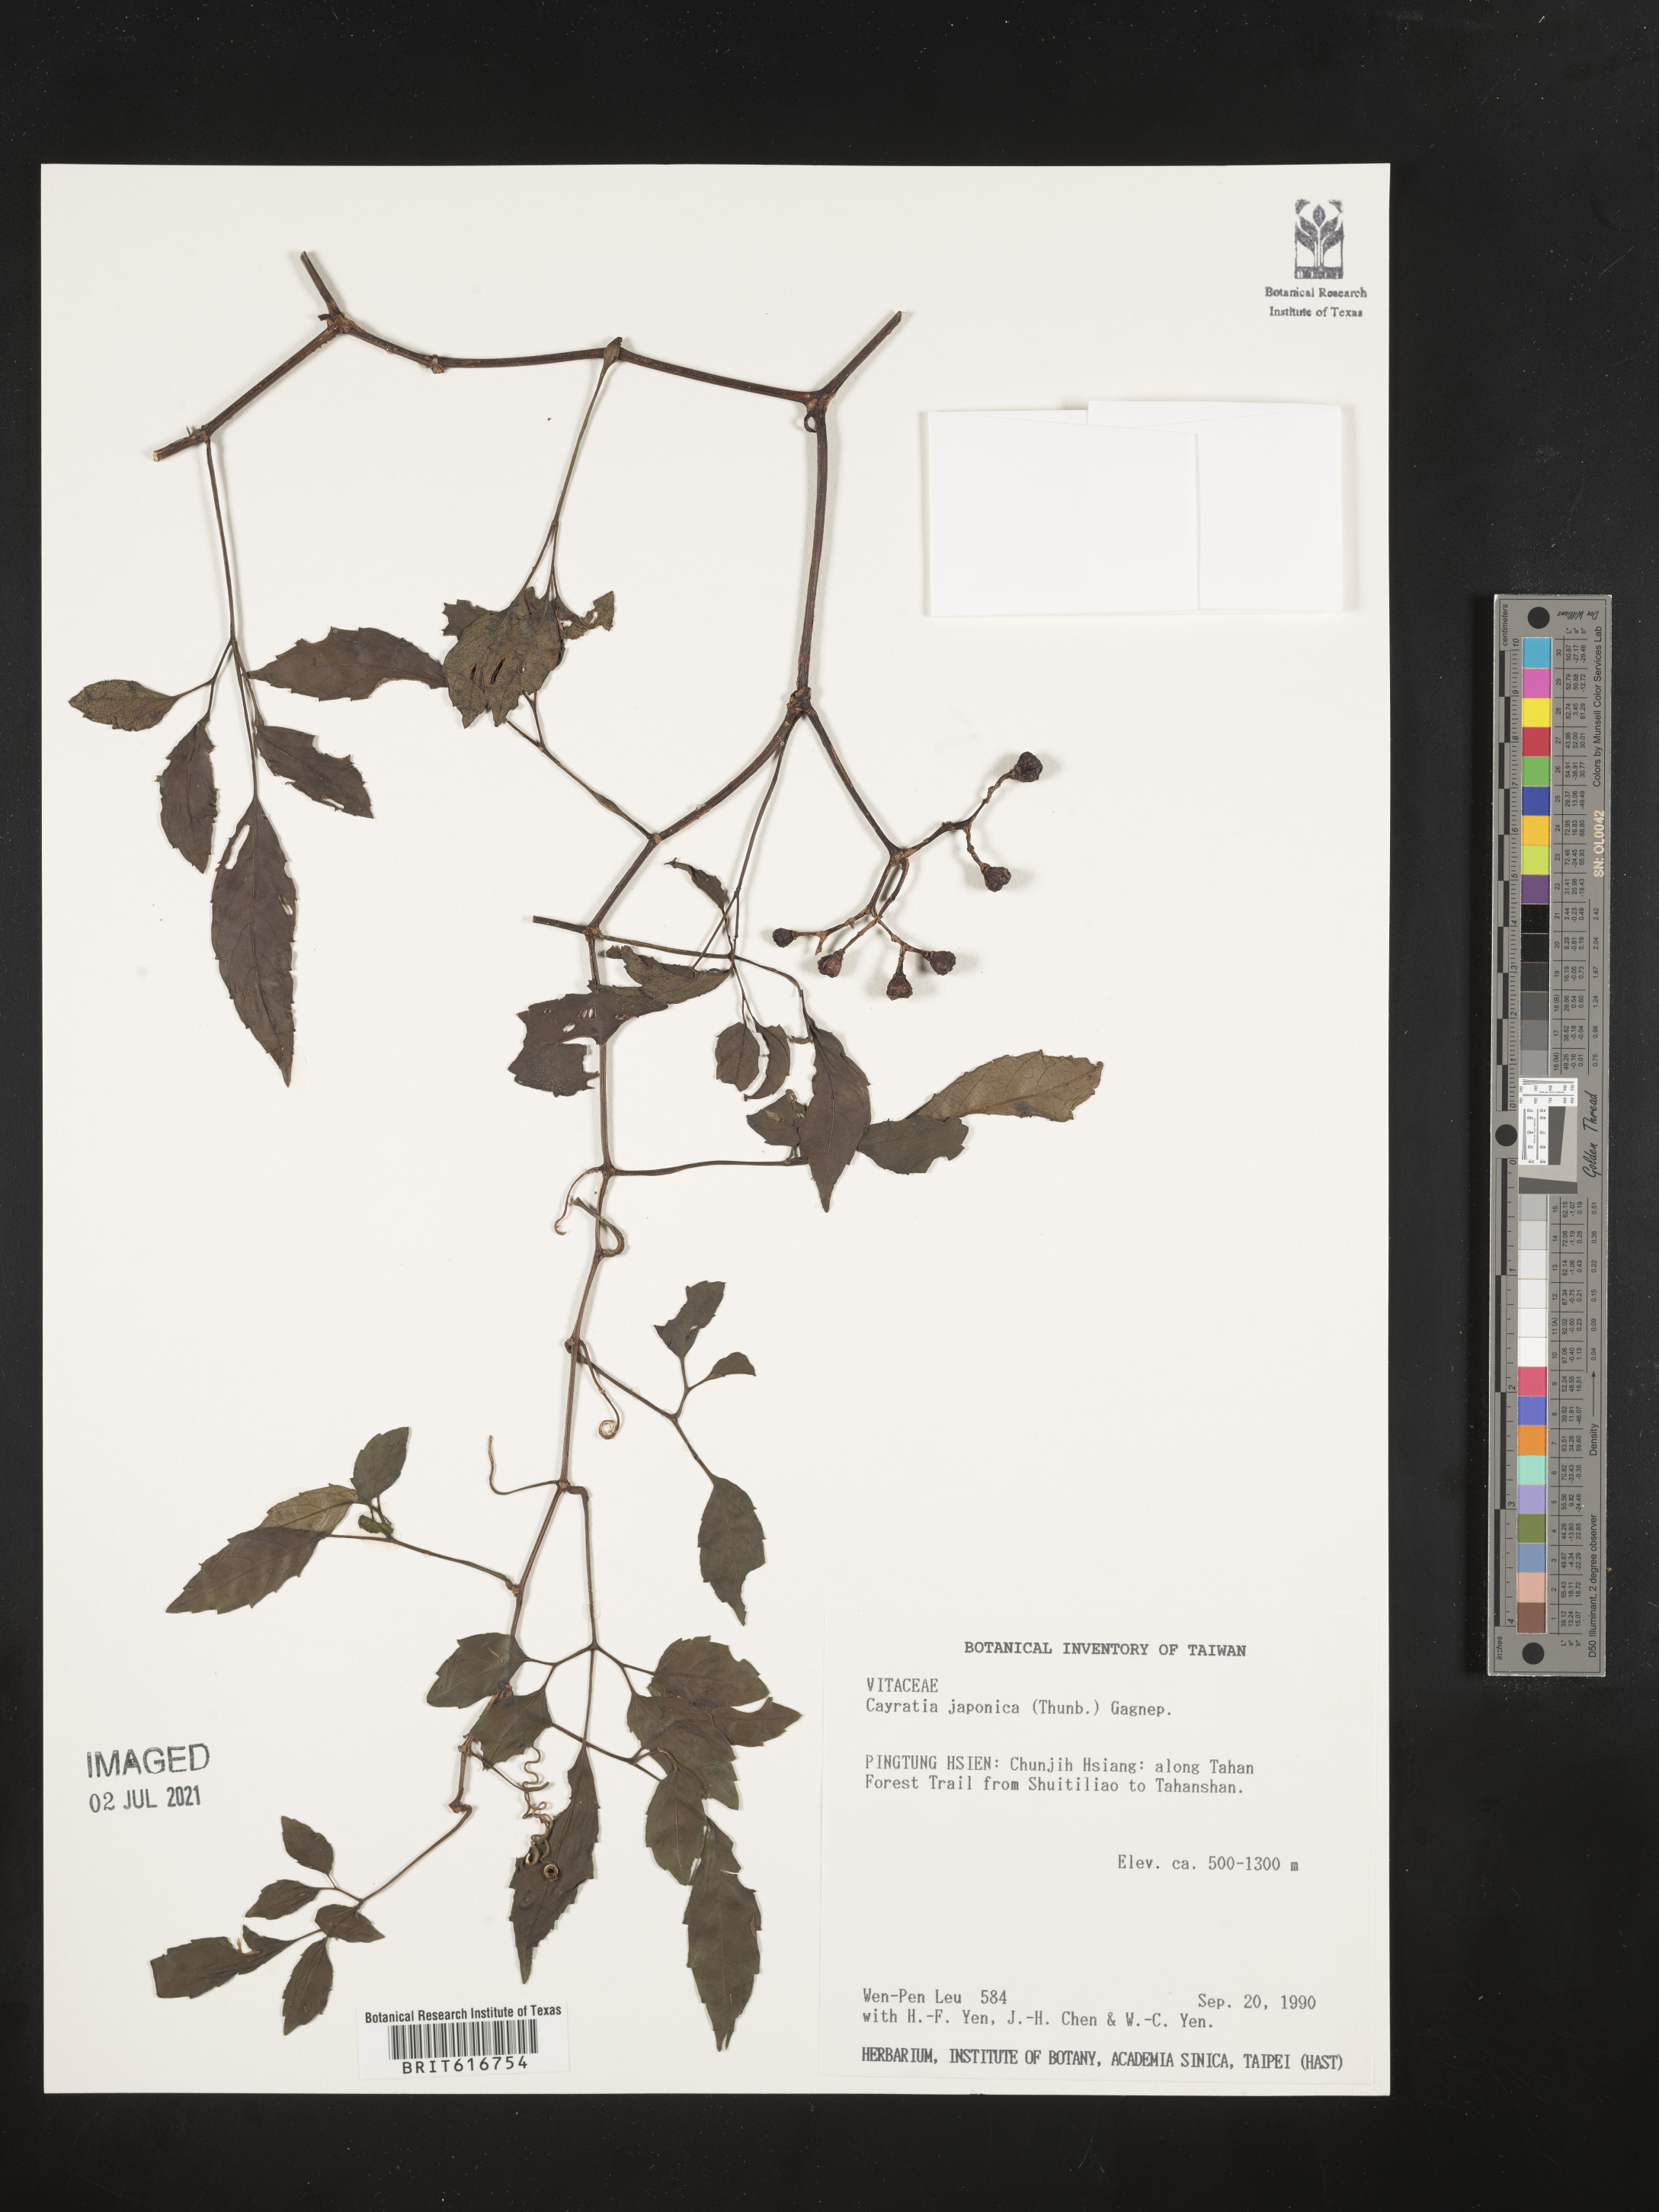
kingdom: Plantae
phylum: Tracheophyta
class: Magnoliopsida
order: Vitales
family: Vitaceae
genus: Causonis
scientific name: Causonis japonica
